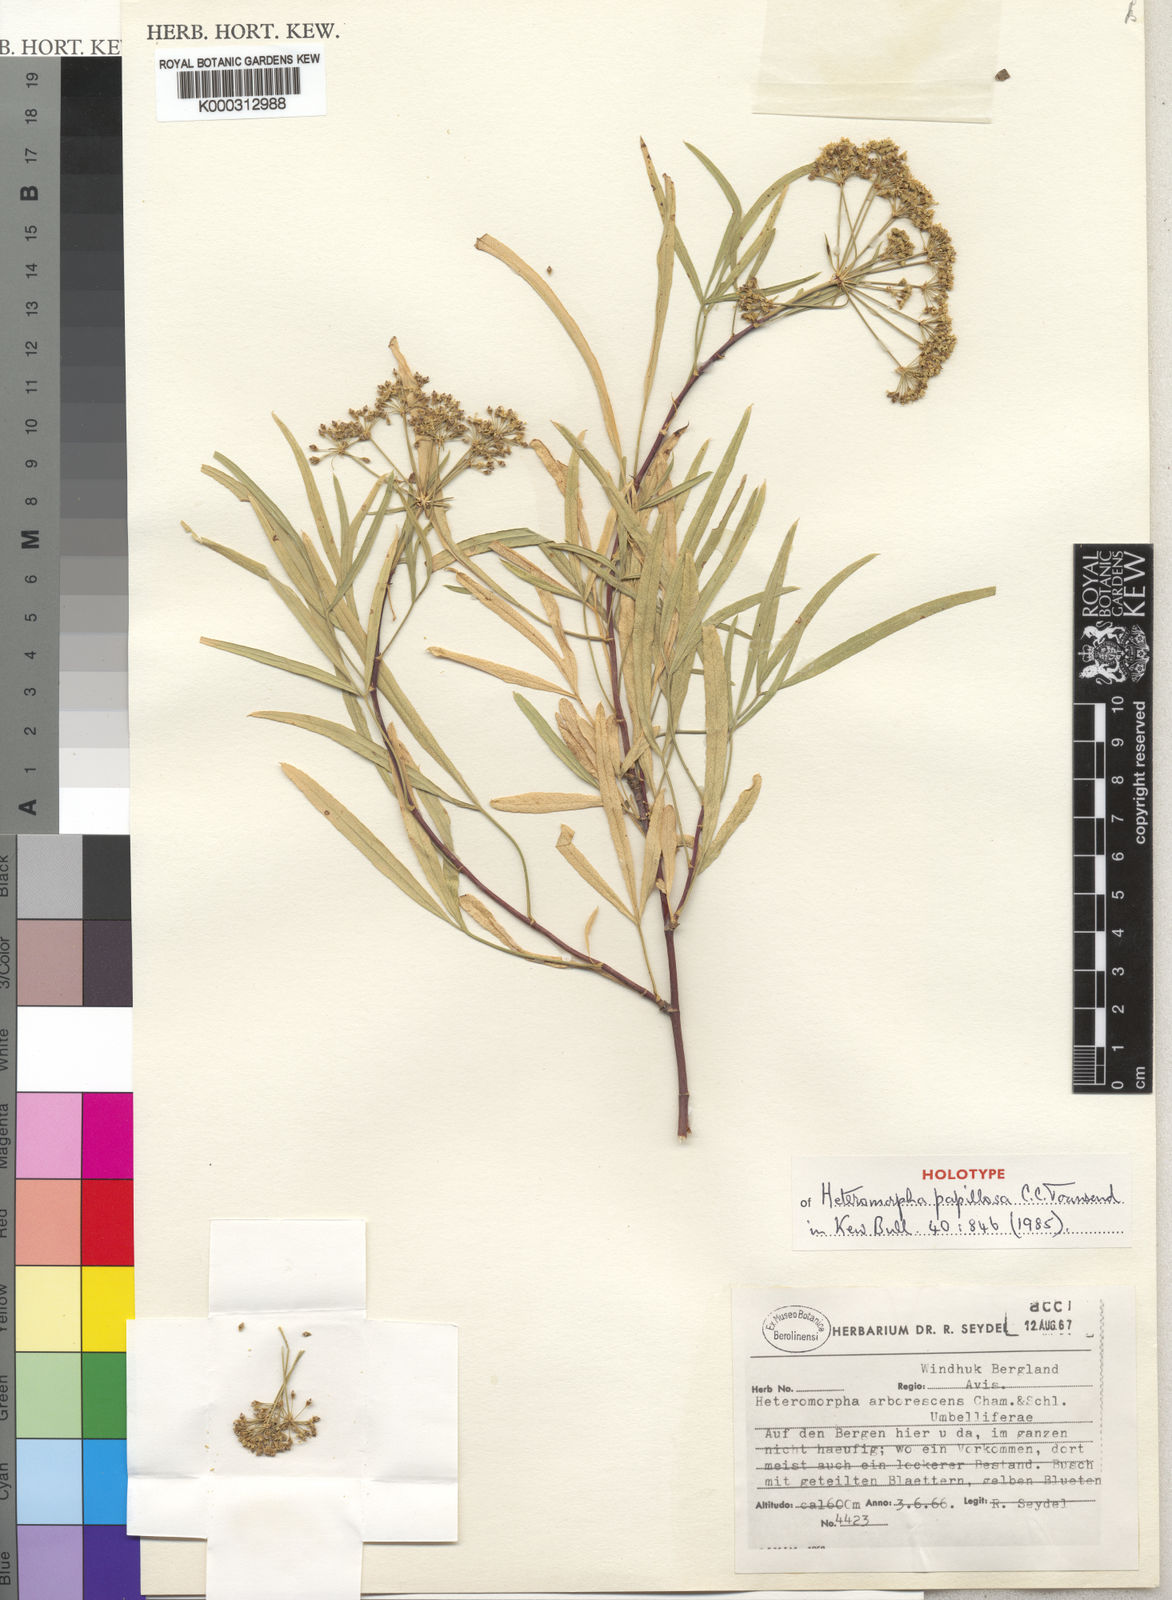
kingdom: Plantae
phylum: Tracheophyta
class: Magnoliopsida
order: Apiales
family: Apiaceae
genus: Heteromorpha
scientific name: Heteromorpha papillosa
